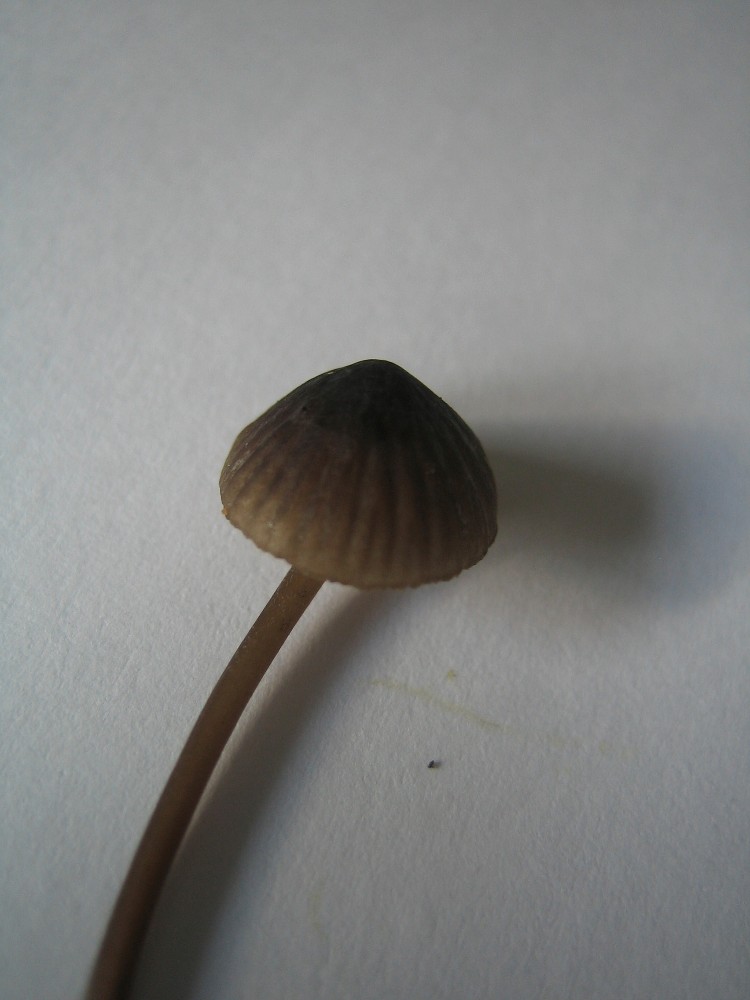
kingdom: Fungi
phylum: Basidiomycota
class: Agaricomycetes
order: Agaricales
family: Mycenaceae
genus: Mycena
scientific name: Mycena galopus
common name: hvidmælket huesvamp
